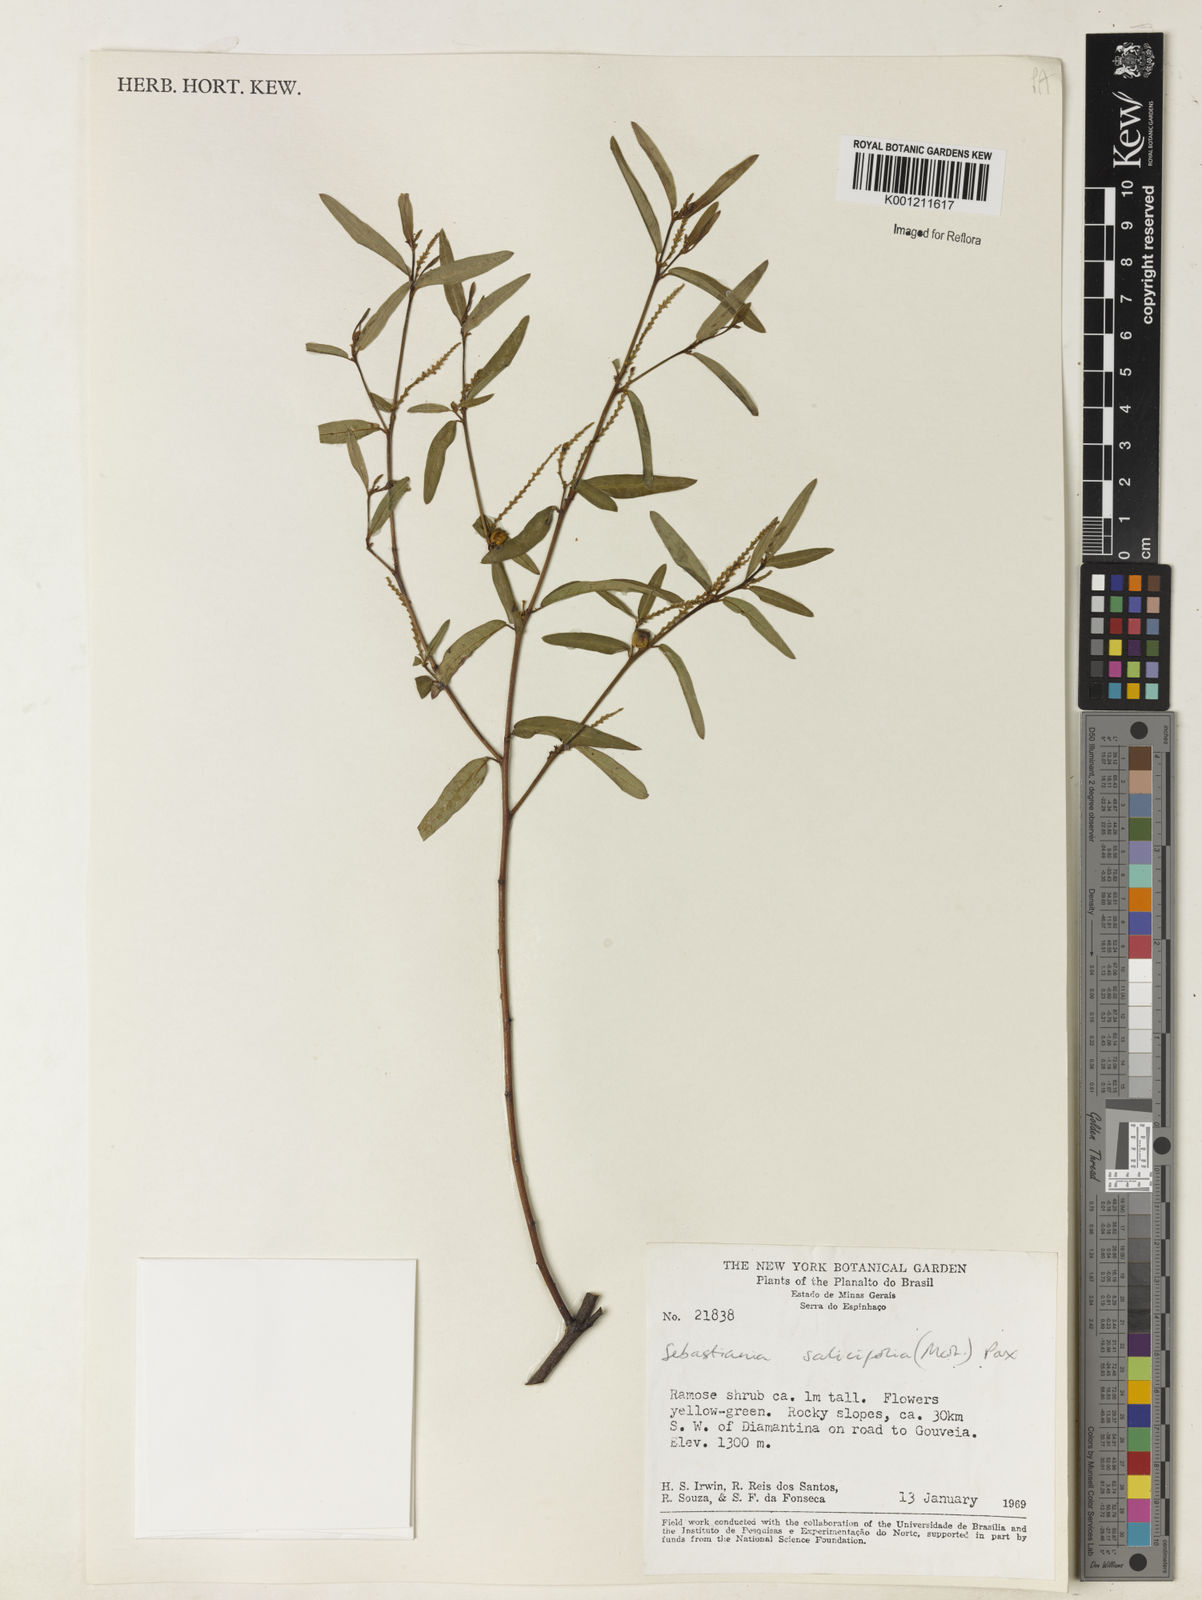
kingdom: Plantae
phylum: Tracheophyta
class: Magnoliopsida
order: Malpighiales
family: Euphorbiaceae
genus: Microstachys
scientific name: Microstachys
